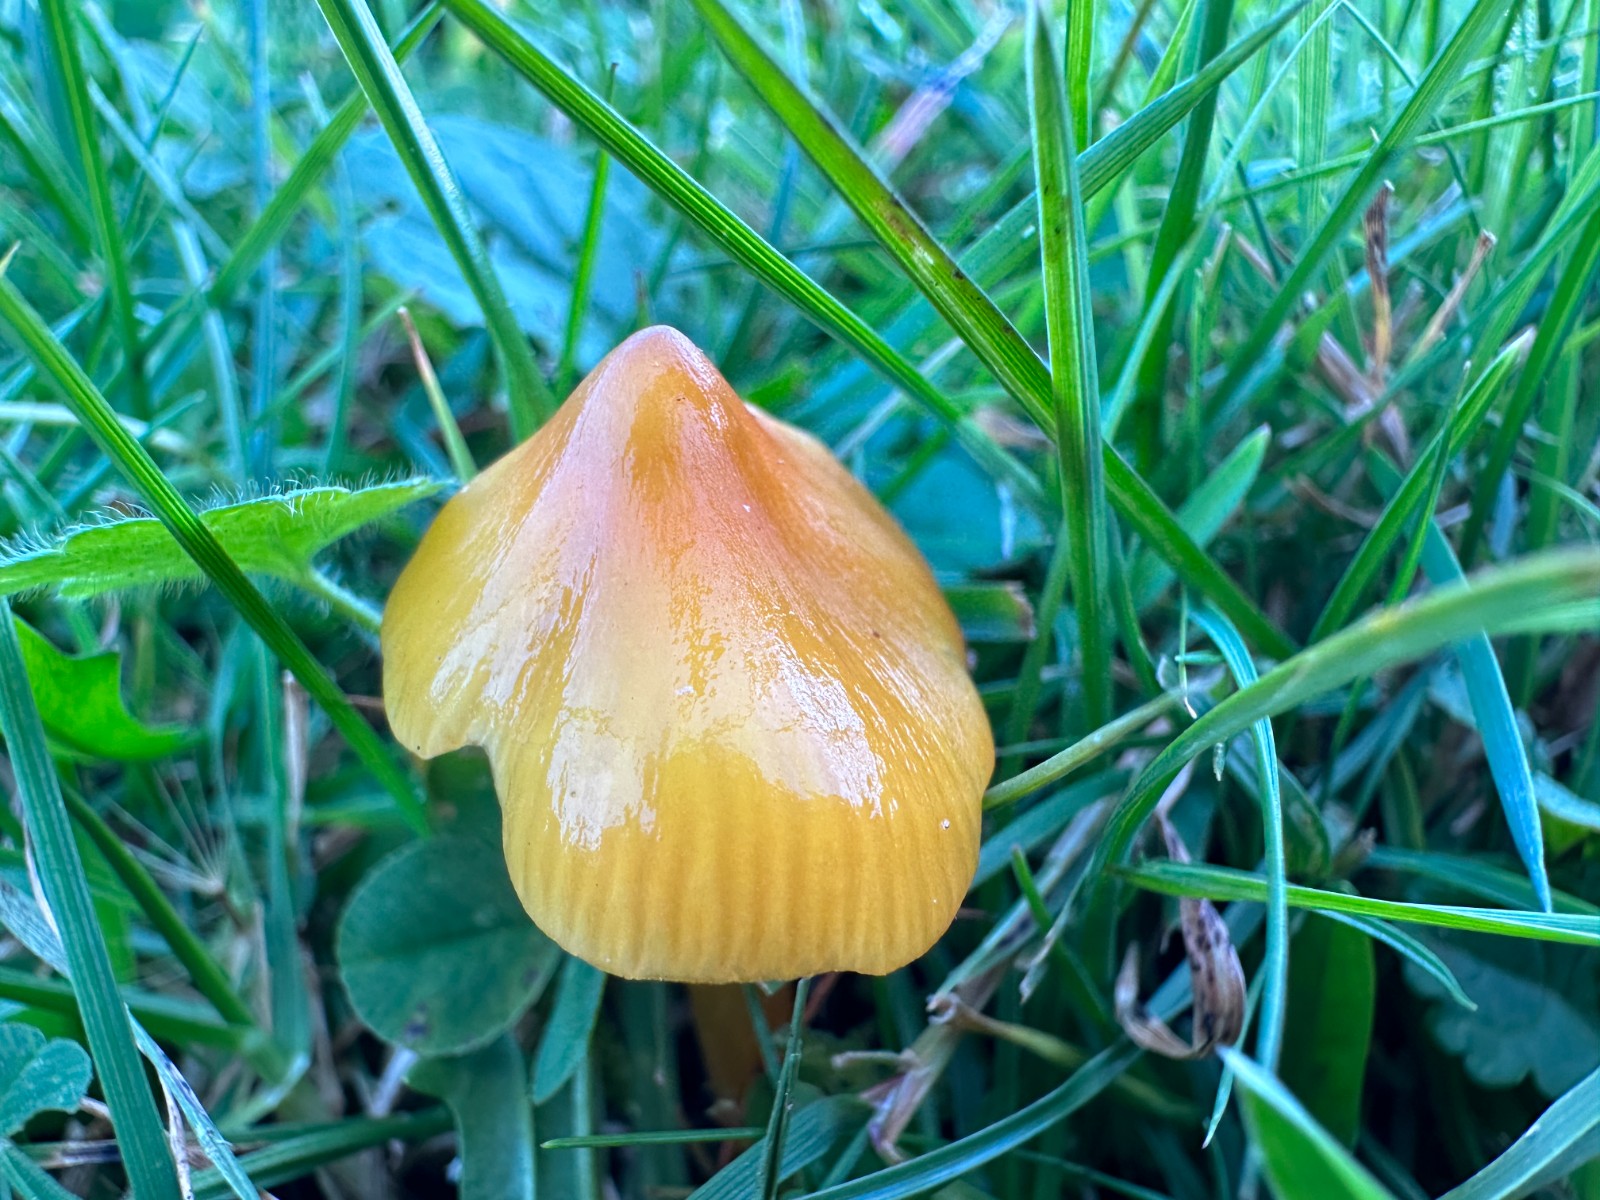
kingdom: Fungi
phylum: Basidiomycota
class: Agaricomycetes
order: Agaricales
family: Hygrophoraceae
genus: Hygrocybe
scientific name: Hygrocybe acutoconica
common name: spidspuklet vokshat
